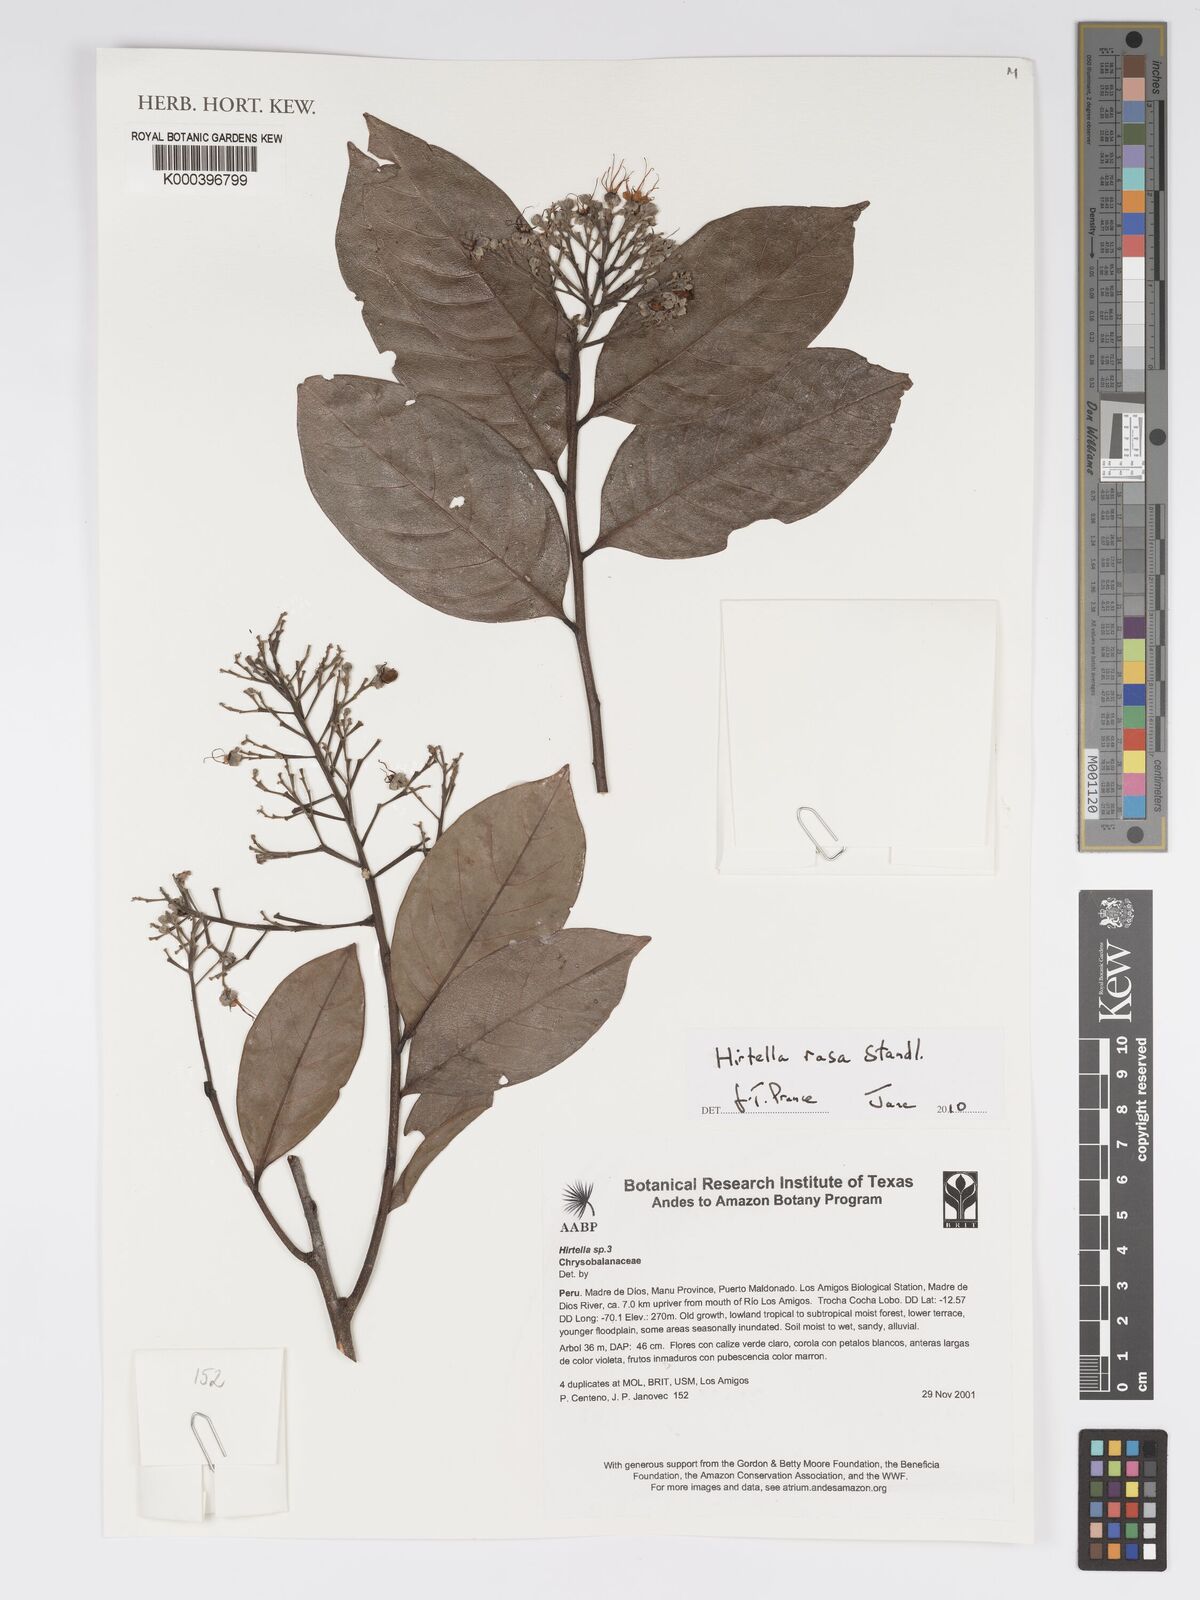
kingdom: Plantae
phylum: Tracheophyta
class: Magnoliopsida
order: Malpighiales
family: Chrysobalanaceae
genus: Hirtella
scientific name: Hirtella rasa
